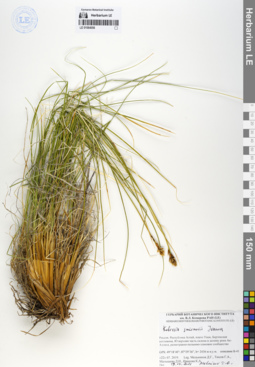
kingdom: Plantae
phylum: Tracheophyta
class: Liliopsida
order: Poales
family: Cyperaceae
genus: Carex
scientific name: Carex borealipolaris
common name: Siberian bog sedge
